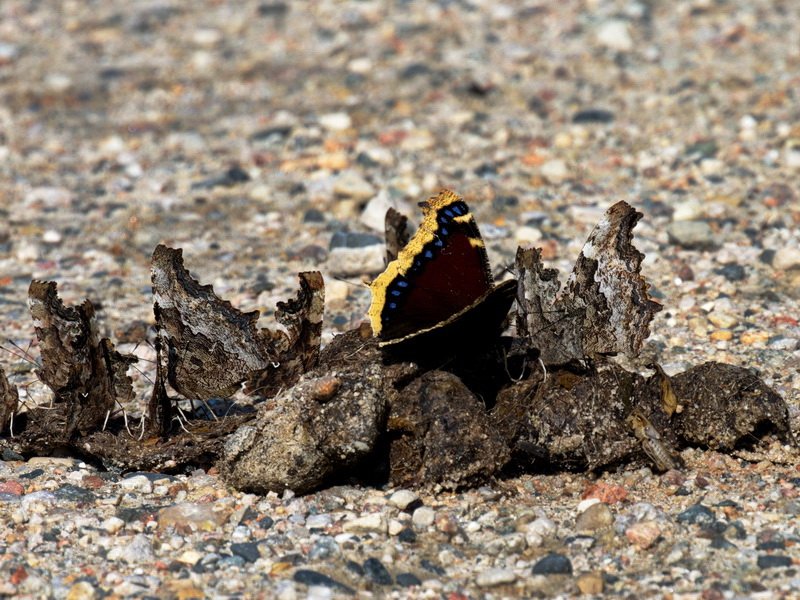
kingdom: Animalia
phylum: Arthropoda
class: Insecta
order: Lepidoptera
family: Nymphalidae
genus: Polygonia
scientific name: Polygonia vaualbum
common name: Compton Tortoiseshell
